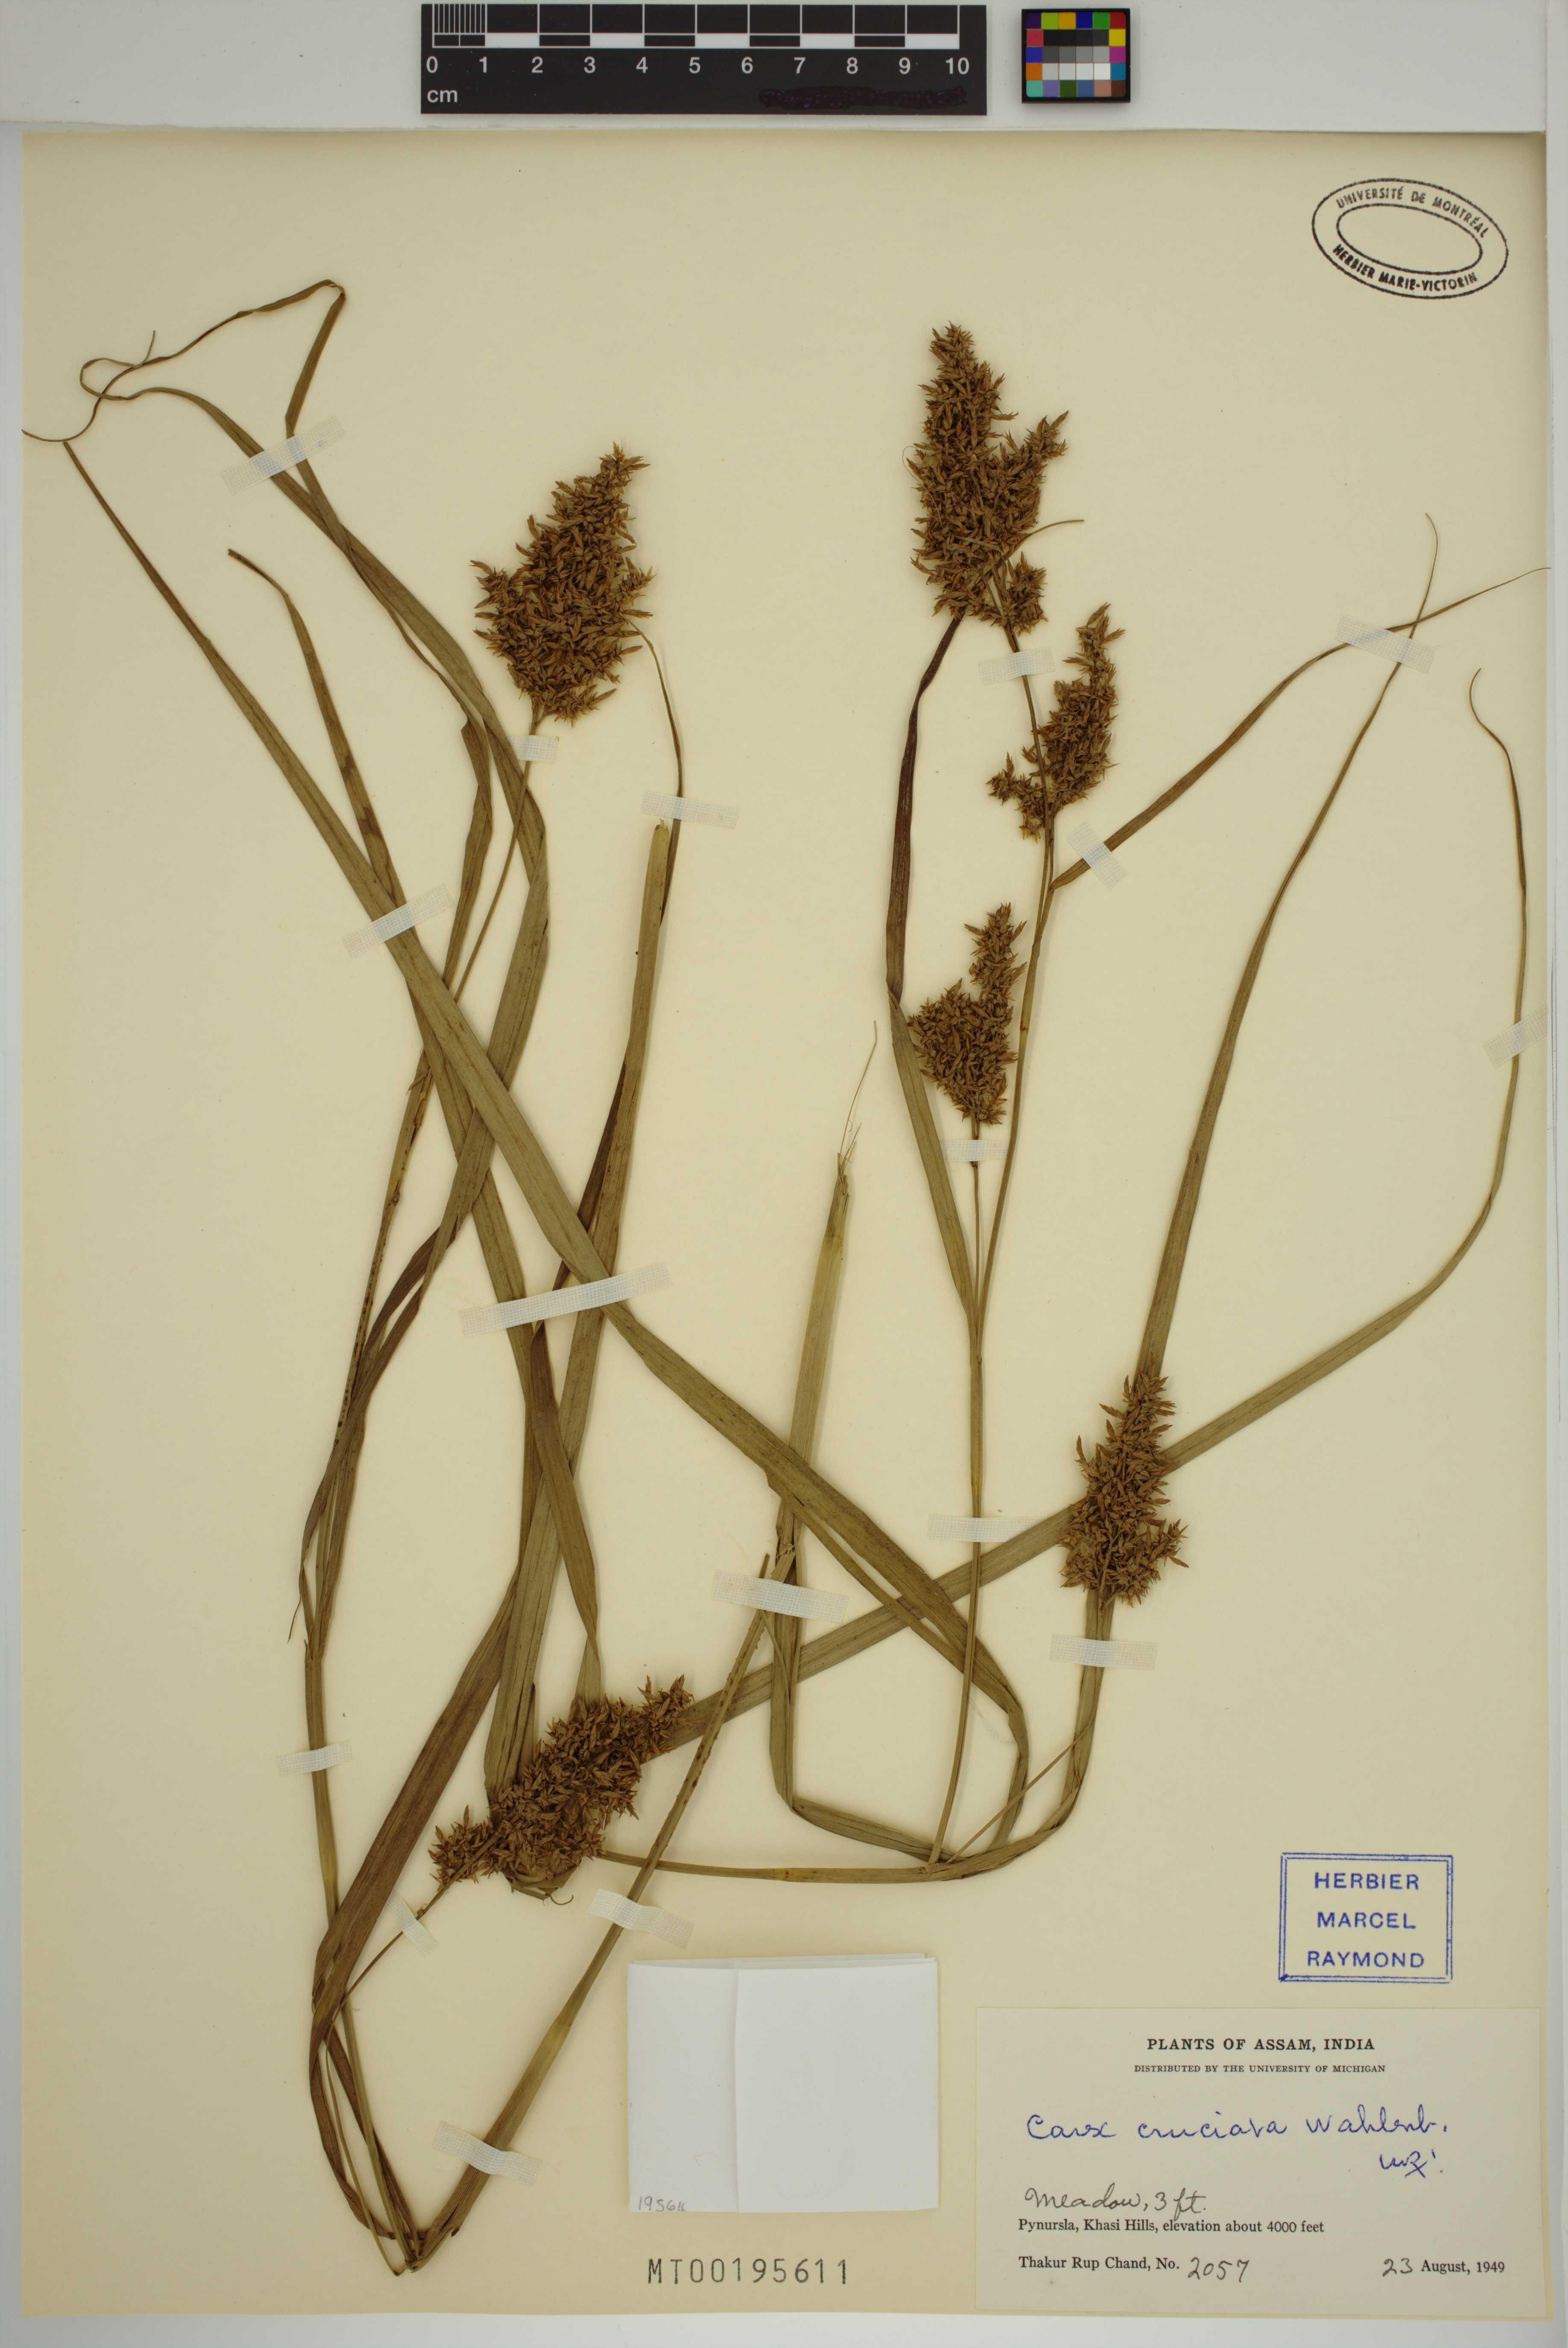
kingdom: Plantae
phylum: Tracheophyta
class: Liliopsida
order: Poales
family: Cyperaceae
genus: Carex
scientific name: Carex cruciata
